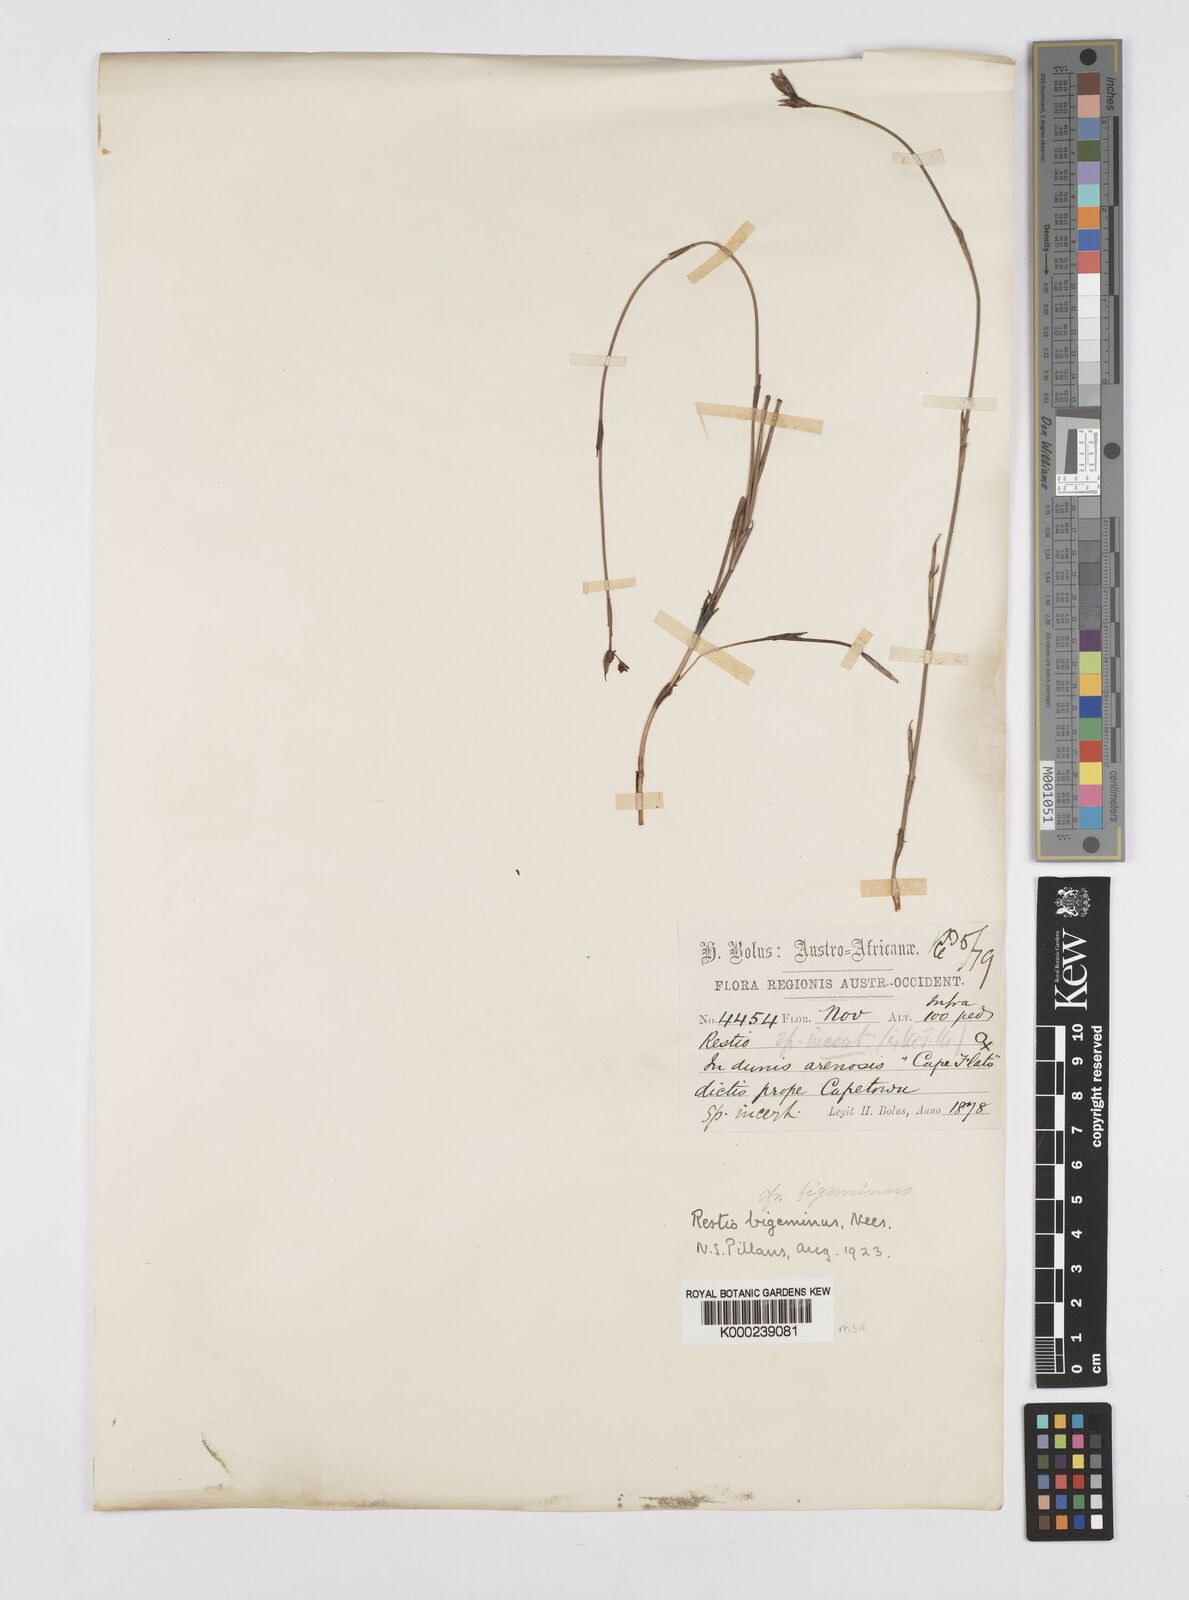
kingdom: Plantae
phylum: Tracheophyta
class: Liliopsida
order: Poales
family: Restionaceae
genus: Restio
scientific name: Restio micans
